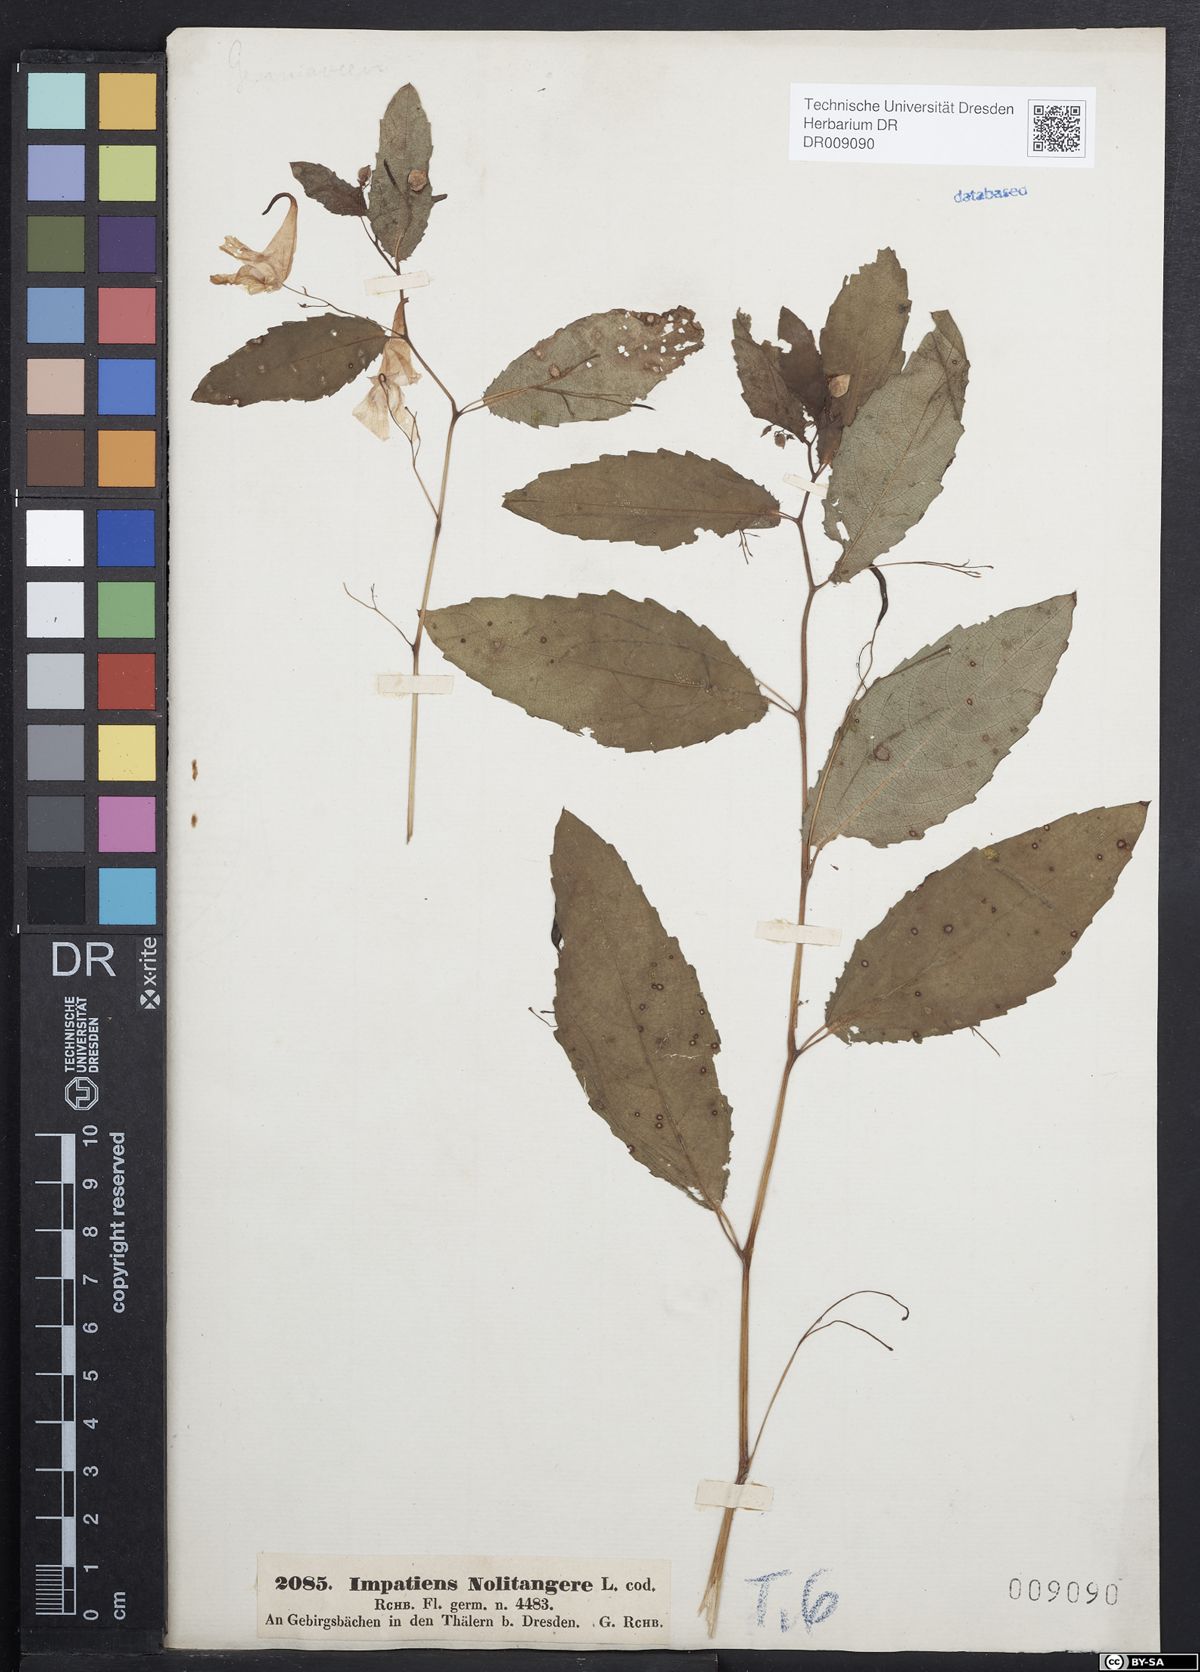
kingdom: Plantae
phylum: Tracheophyta
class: Magnoliopsida
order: Ericales
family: Balsaminaceae
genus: Impatiens
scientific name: Impatiens noli-tangere
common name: Touch-me-not balsam
